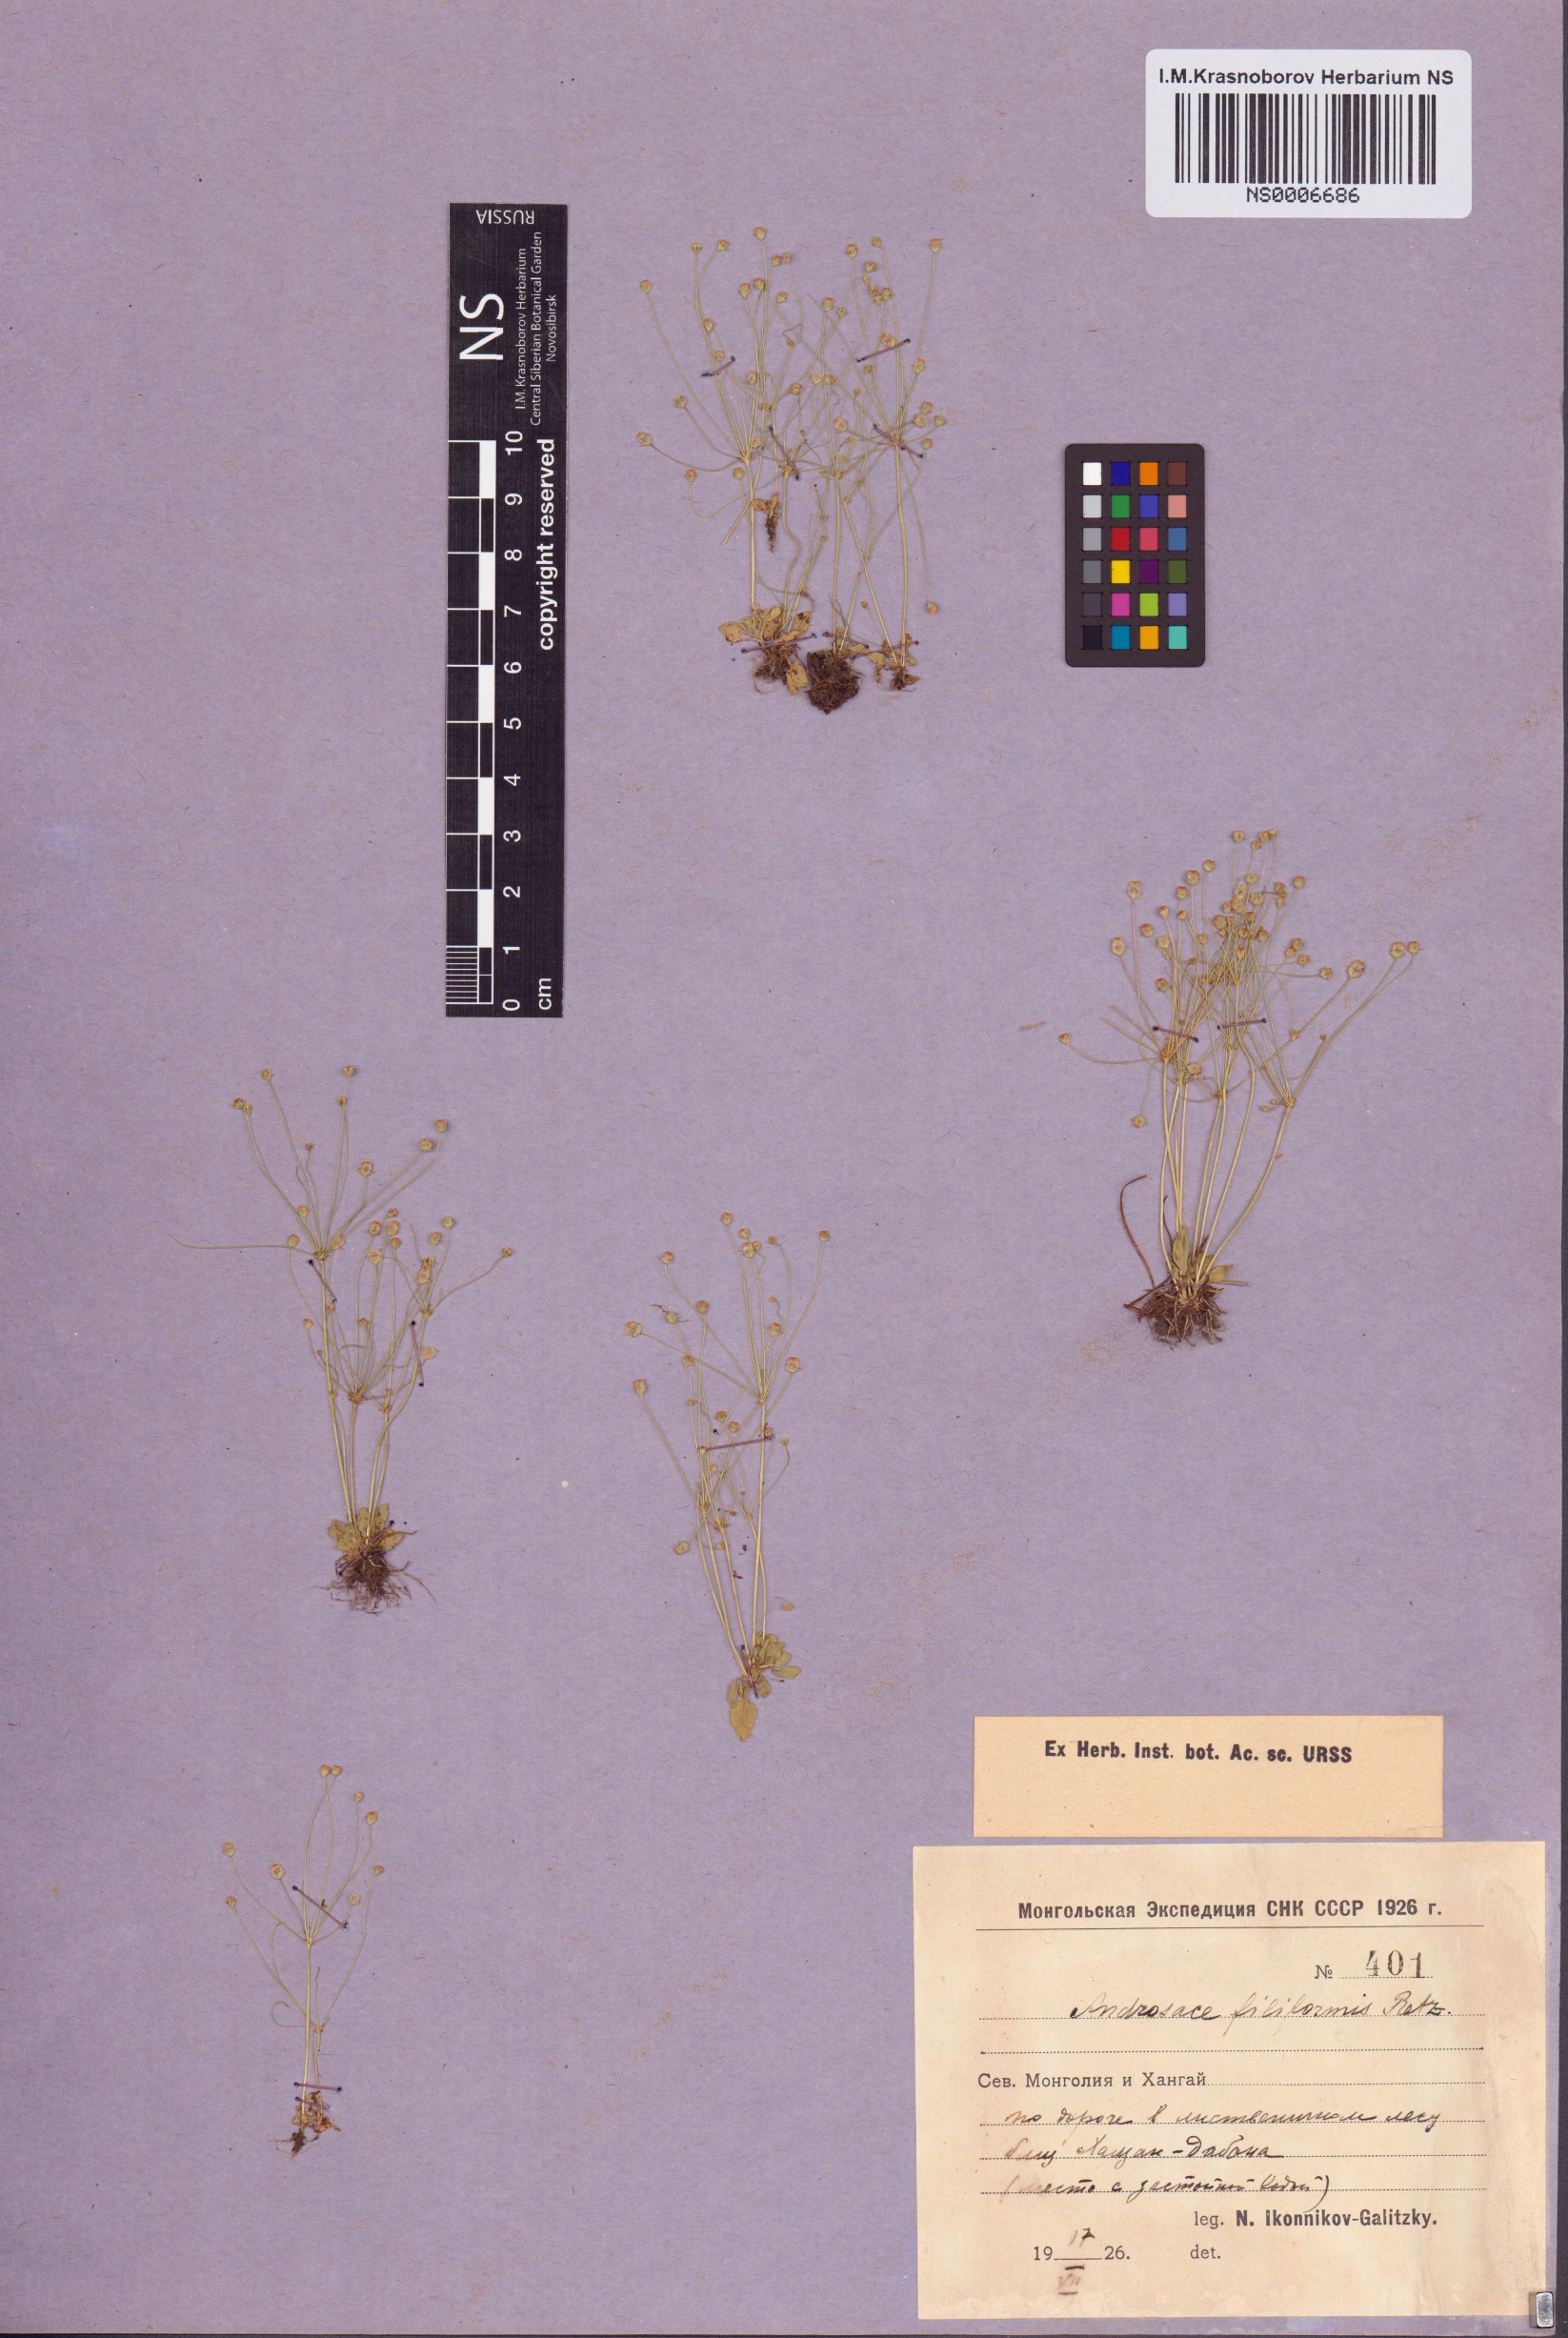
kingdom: Plantae
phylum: Tracheophyta
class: Magnoliopsida
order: Ericales
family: Primulaceae
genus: Androsace
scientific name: Androsace filiformis
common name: Filiform rock jasmine
